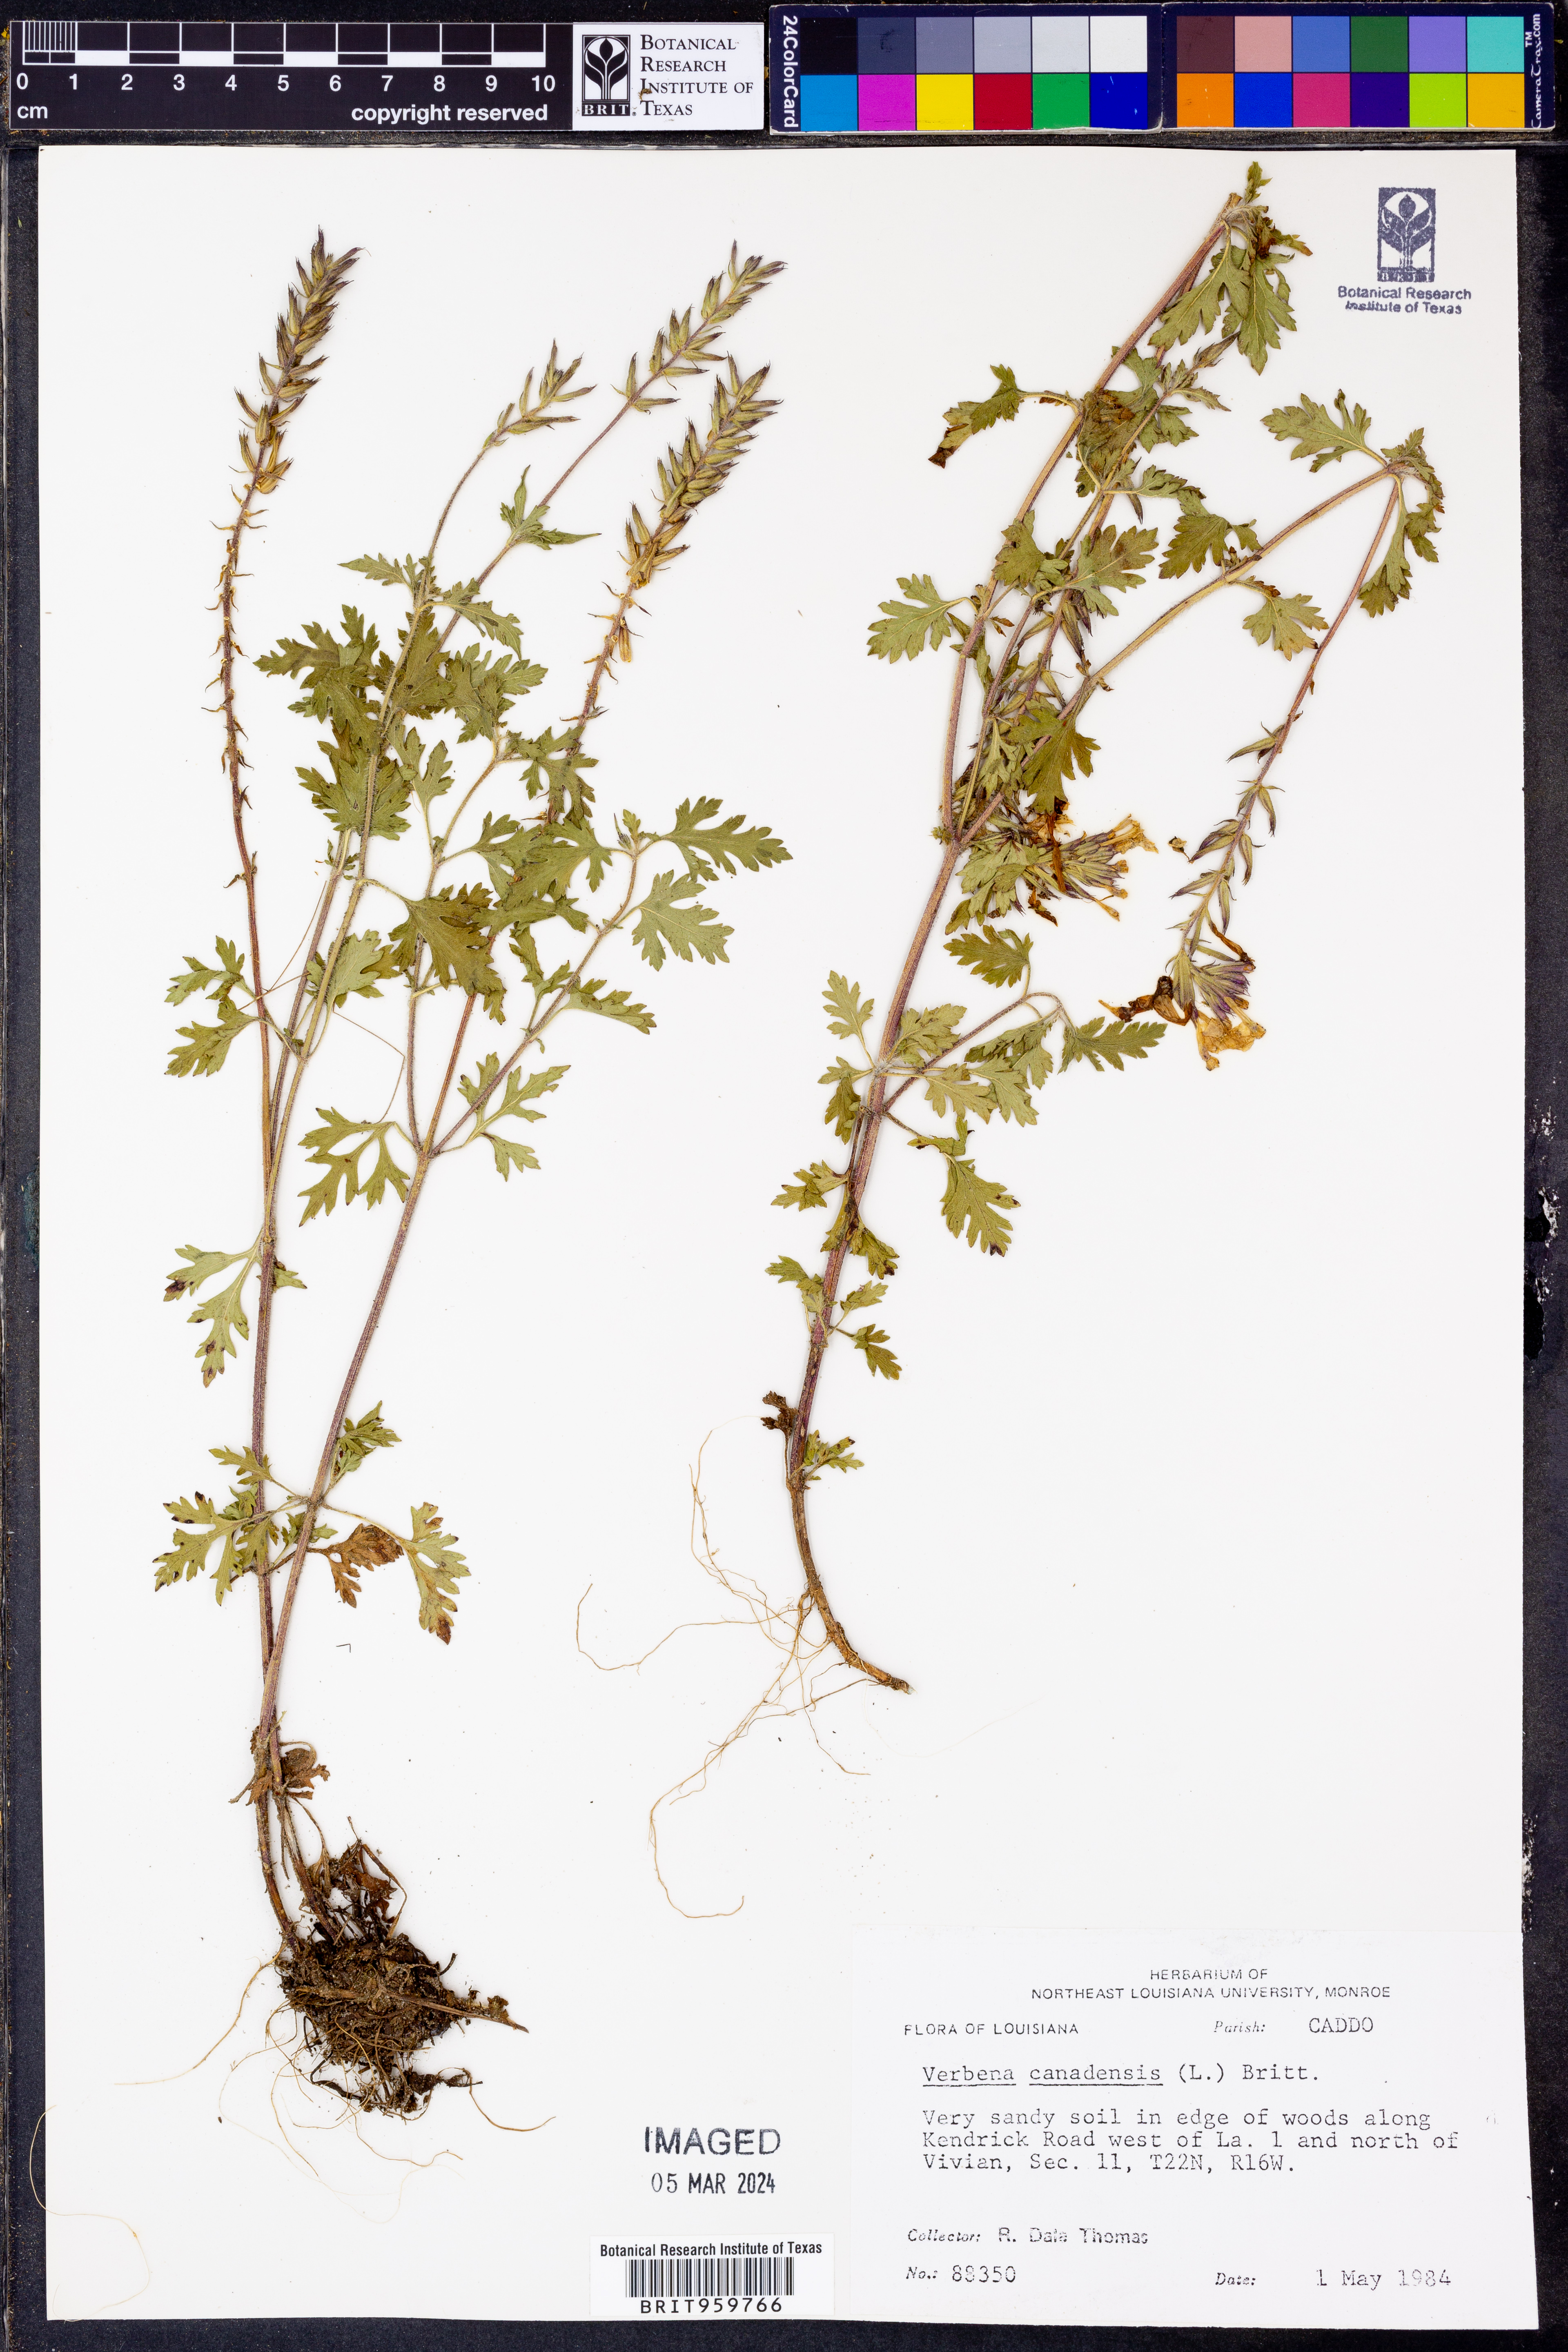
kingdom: Plantae
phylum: Tracheophyta
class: Magnoliopsida
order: Lamiales
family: Verbenaceae
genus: Verbena
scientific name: Verbena canadensis
